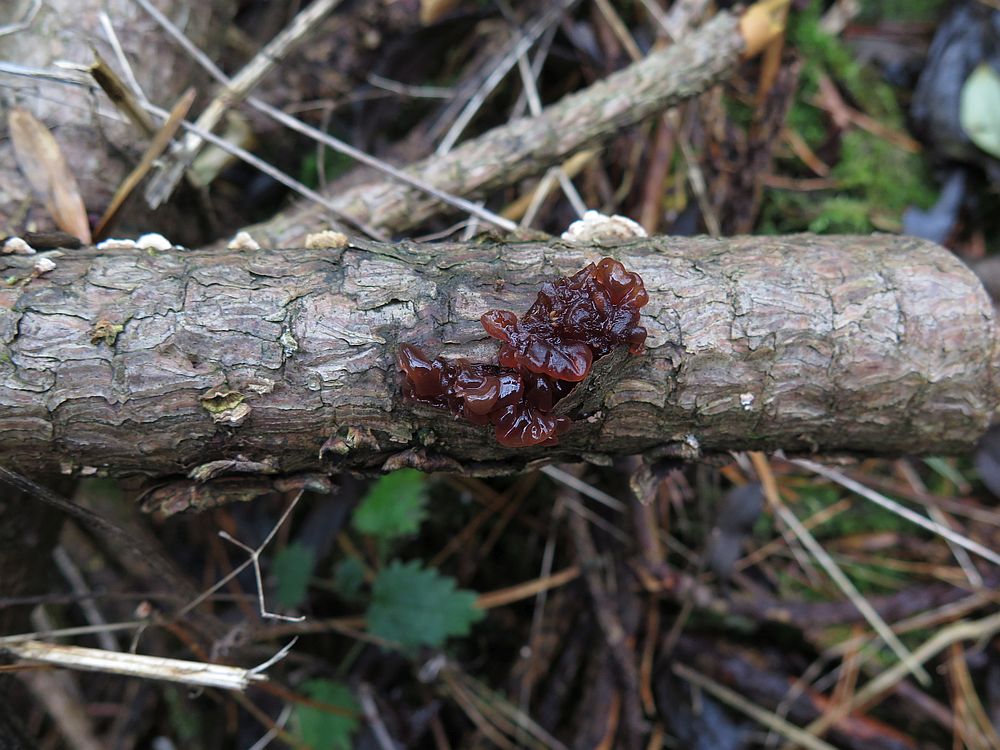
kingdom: Fungi
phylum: Basidiomycota
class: Tremellomycetes
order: Tremellales
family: Tremellaceae
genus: Phaeotremella
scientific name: Phaeotremella foliacea
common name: brun bævresvamp
